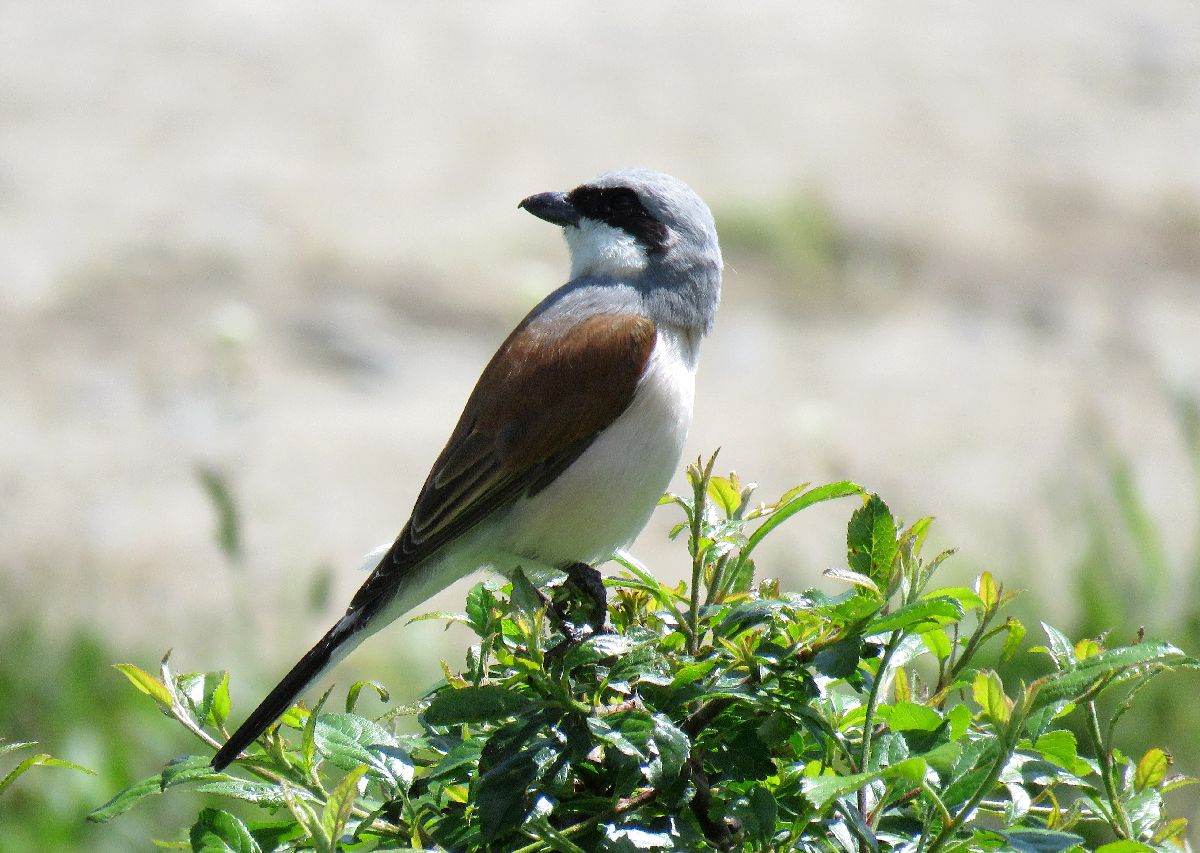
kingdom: Animalia
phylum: Chordata
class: Aves
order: Passeriformes
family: Laniidae
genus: Lanius
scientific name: Lanius collurio
